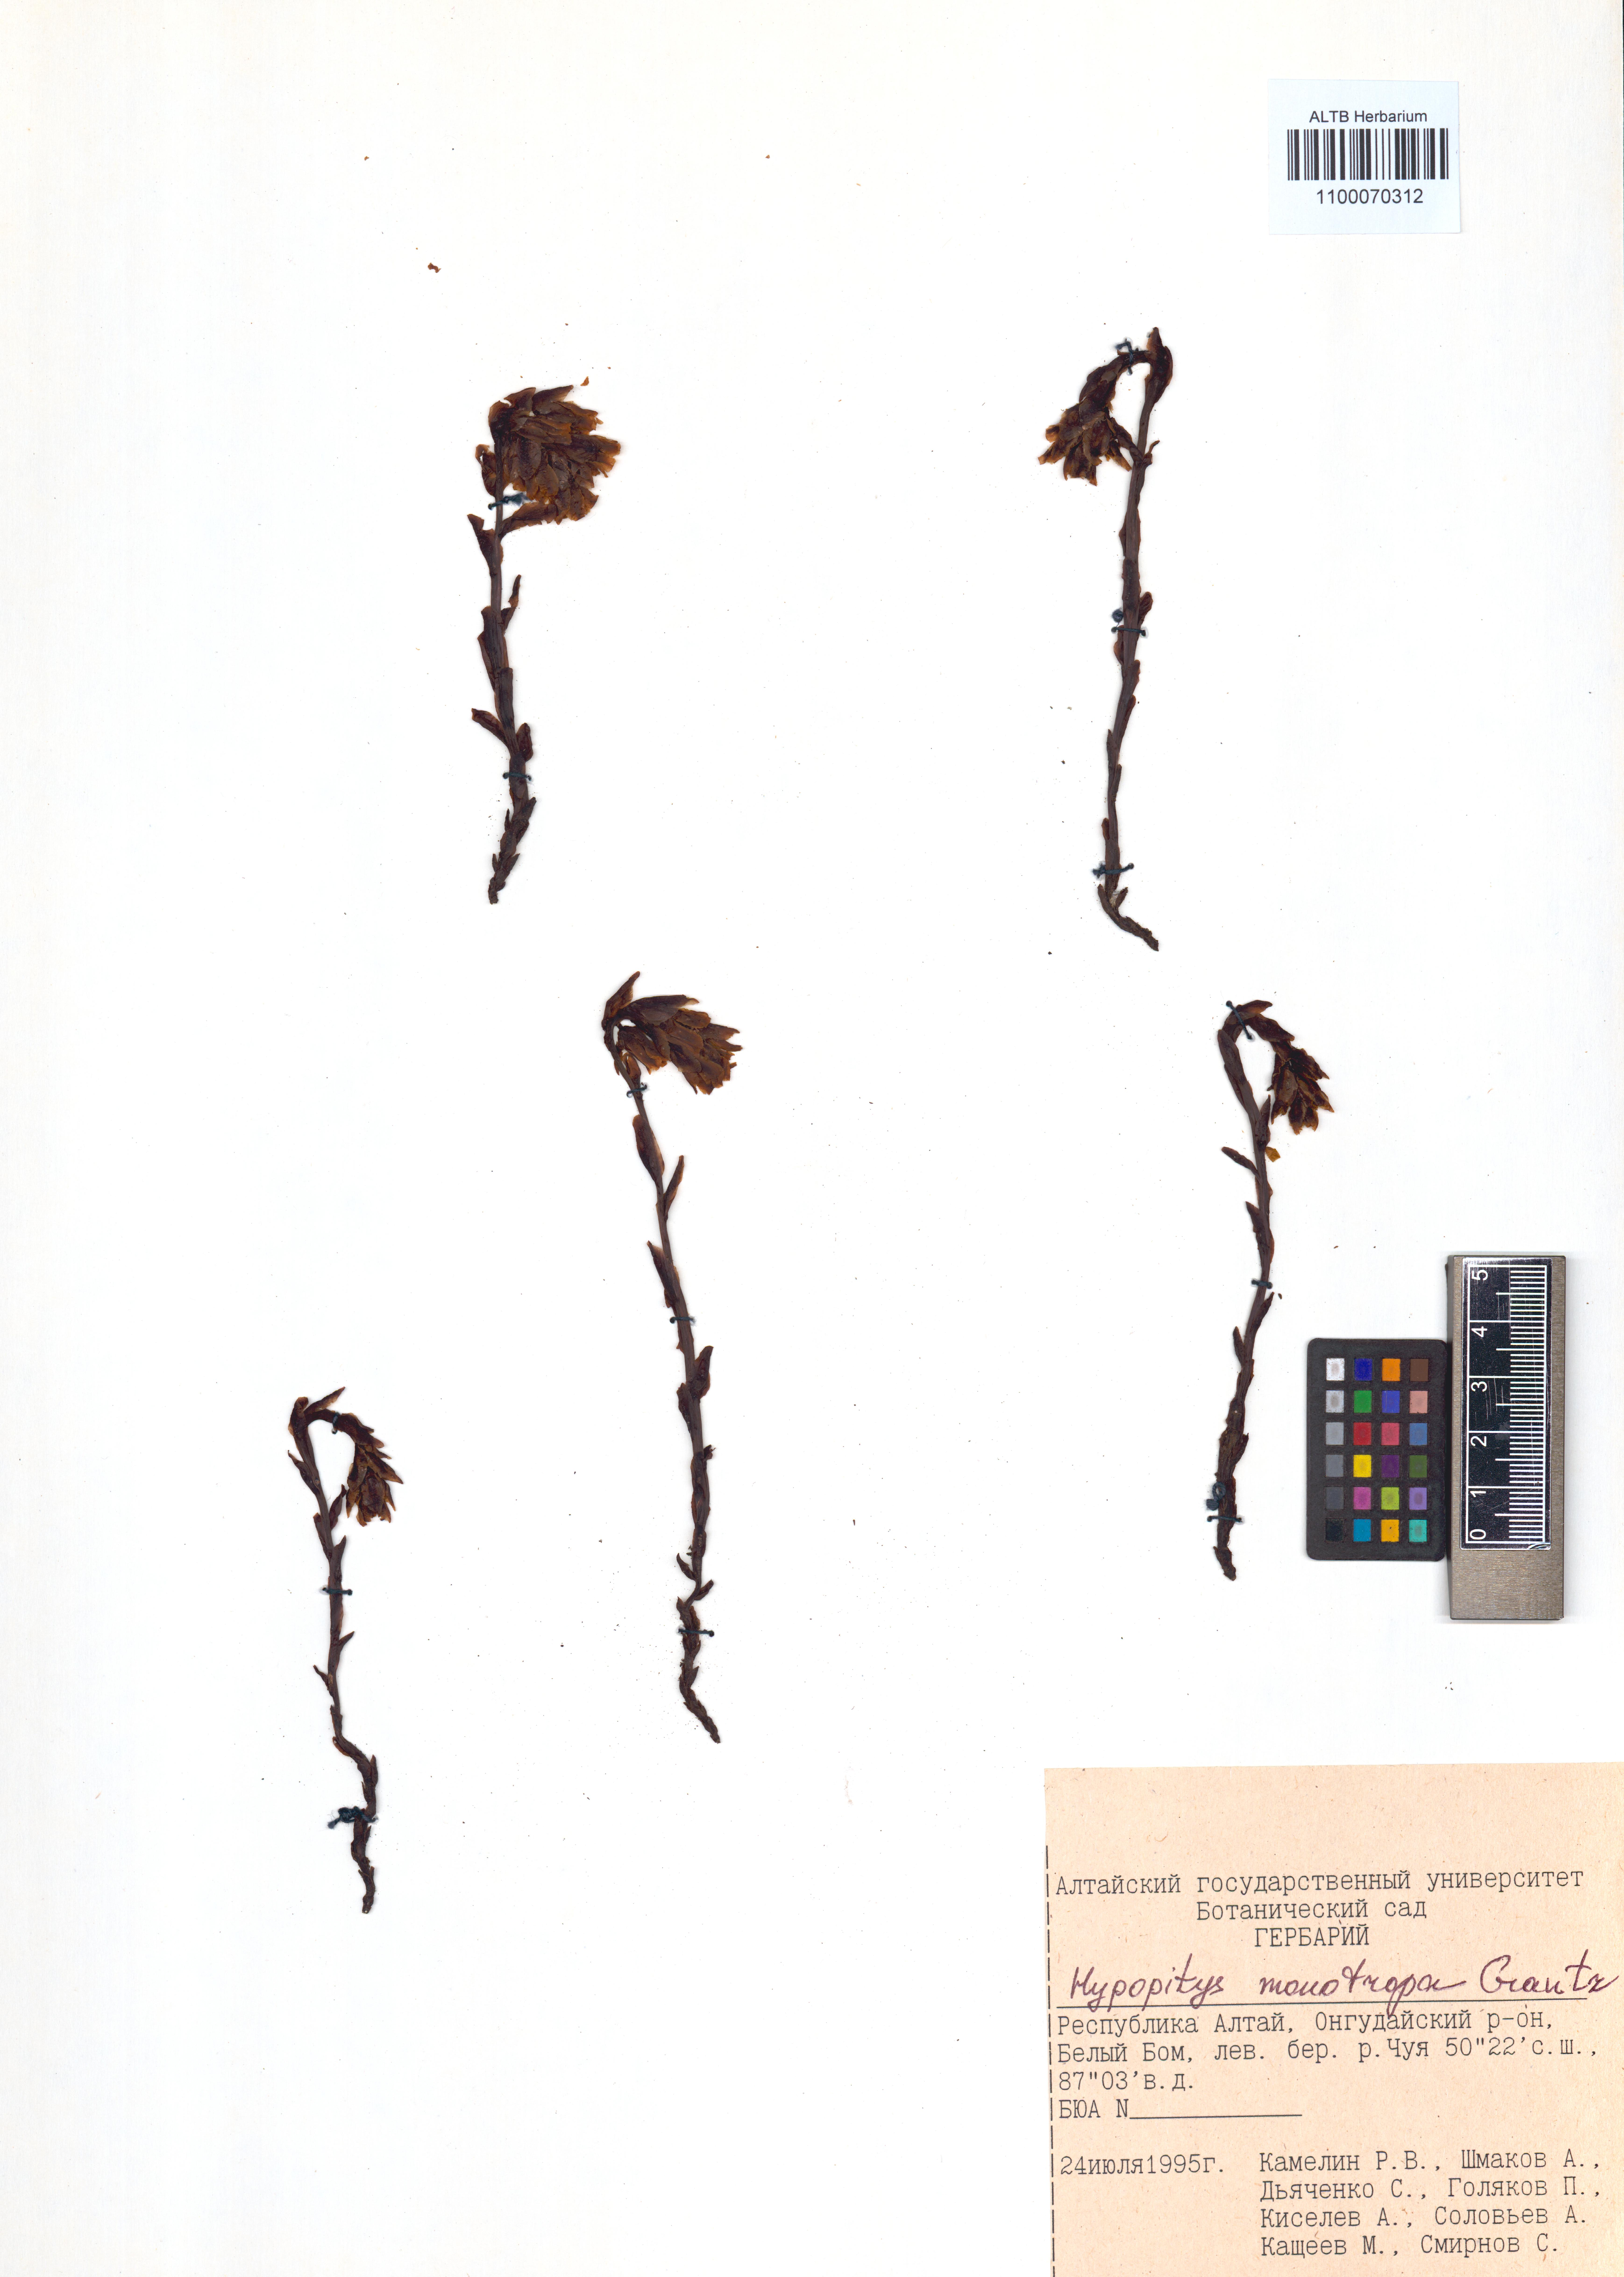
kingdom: Plantae
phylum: Tracheophyta
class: Magnoliopsida
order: Ericales
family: Ericaceae
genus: Hypopitys
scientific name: Hypopitys monotropa
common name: Yellow bird's-nest
